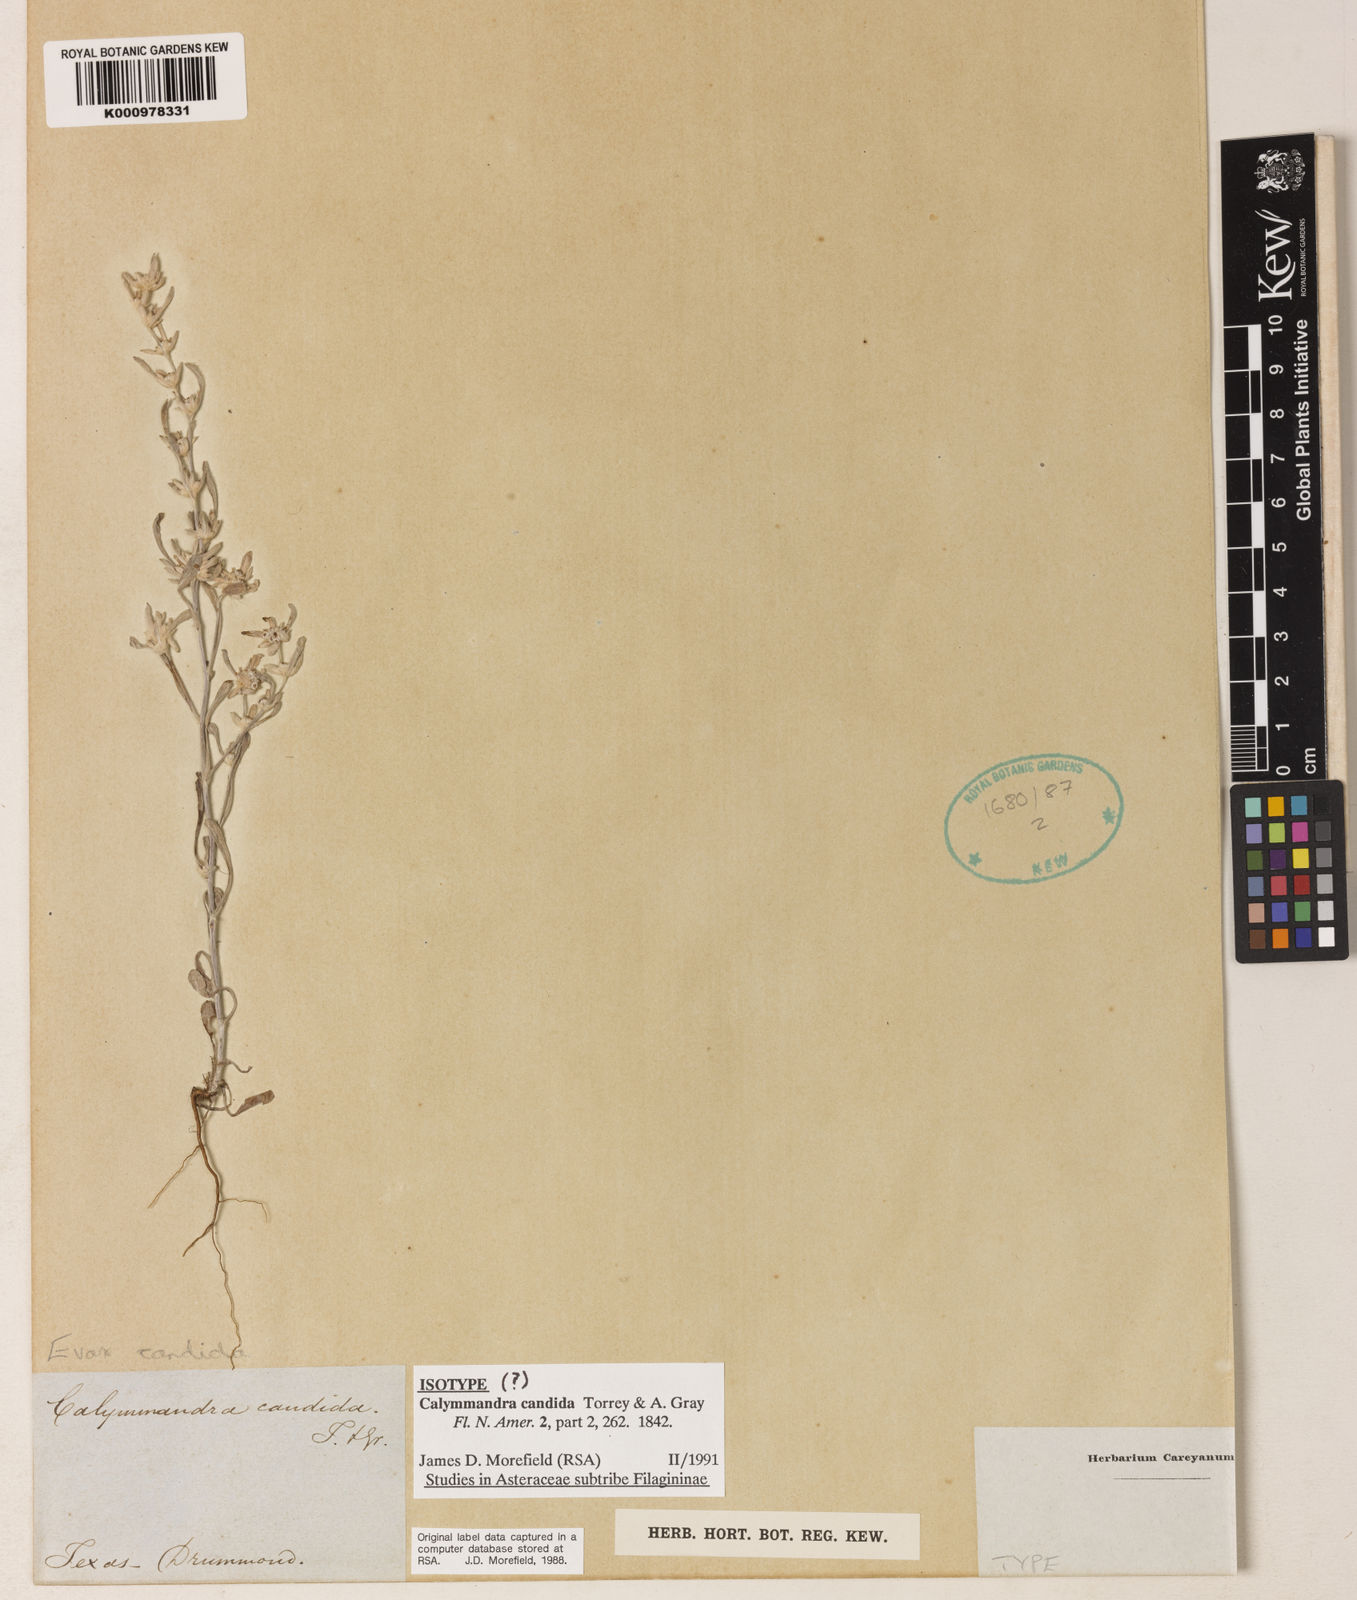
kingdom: Plantae
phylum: Tracheophyta
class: Magnoliopsida
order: Asterales
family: Asteraceae
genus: Diaperia
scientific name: Diaperia candida
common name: Silver rabbit-tobacco
